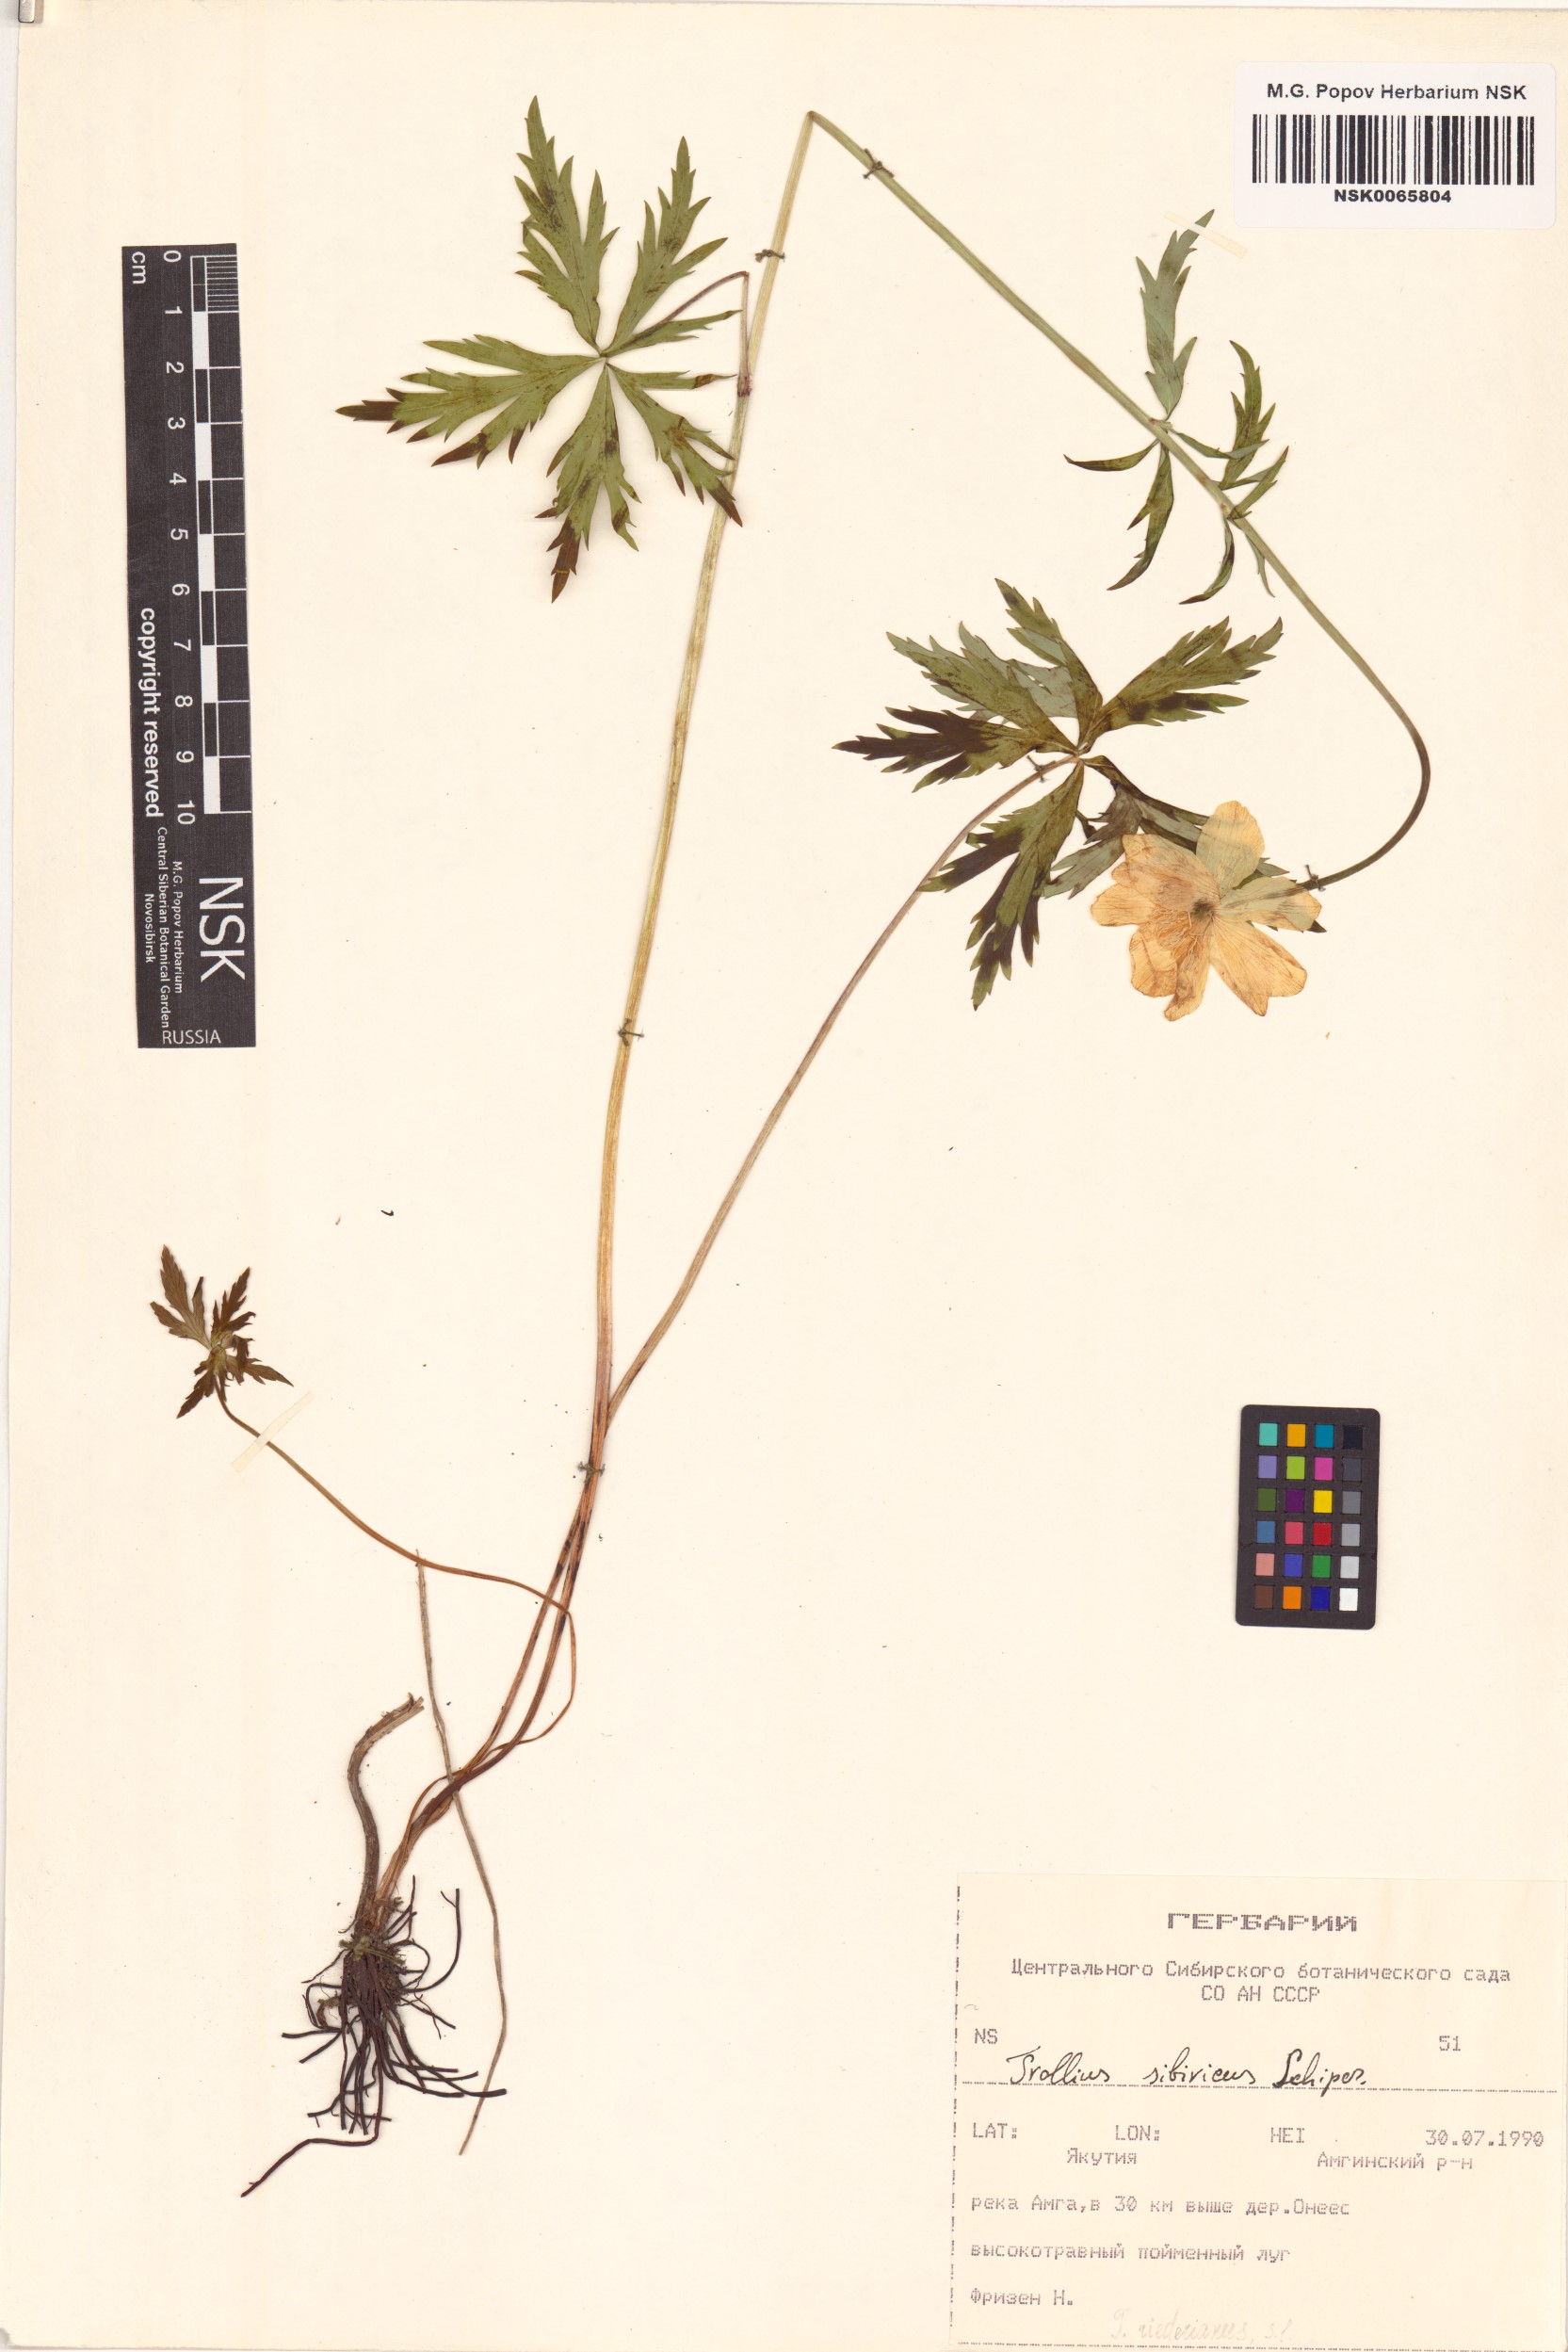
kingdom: Plantae
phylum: Tracheophyta
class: Magnoliopsida
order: Ranunculales
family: Ranunculaceae
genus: Trollius
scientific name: Trollius sibiricus
